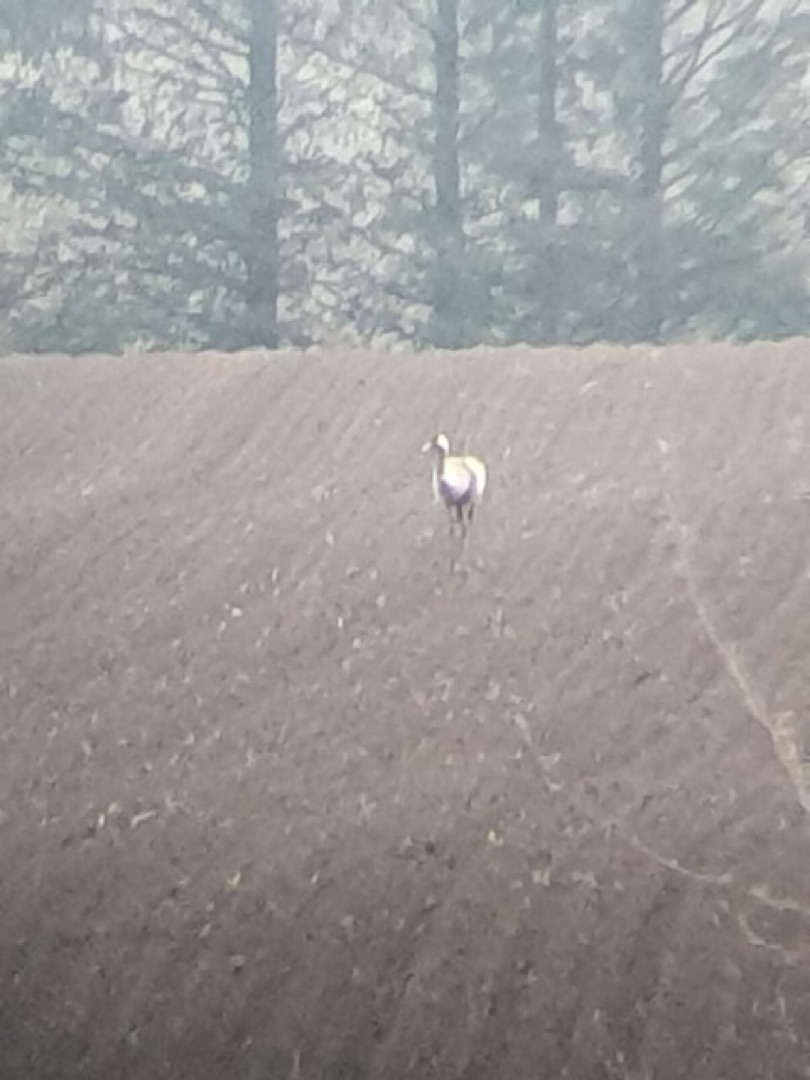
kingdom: Animalia
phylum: Chordata
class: Aves
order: Gruiformes
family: Gruidae
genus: Grus
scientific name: Grus grus
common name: Trane
